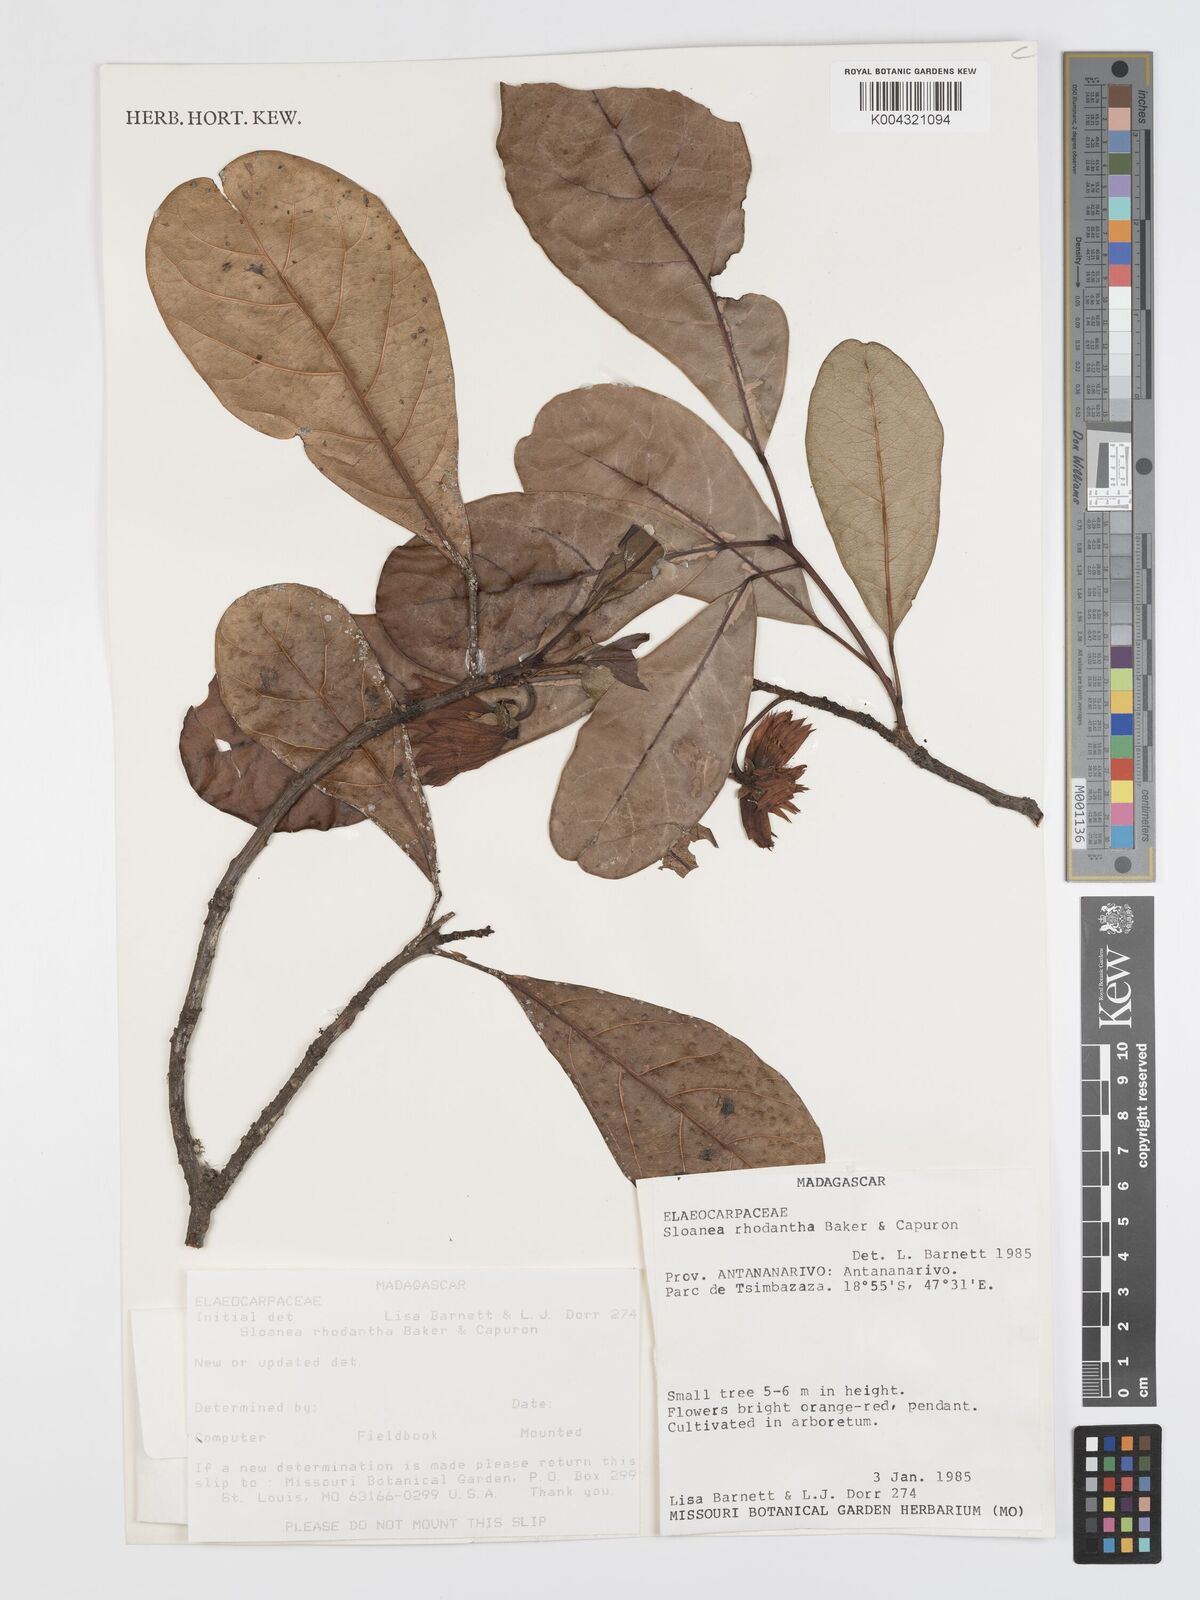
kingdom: Plantae
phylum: Tracheophyta
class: Magnoliopsida
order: Oxalidales
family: Elaeocarpaceae
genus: Sloanea
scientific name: Sloanea rhodantha
